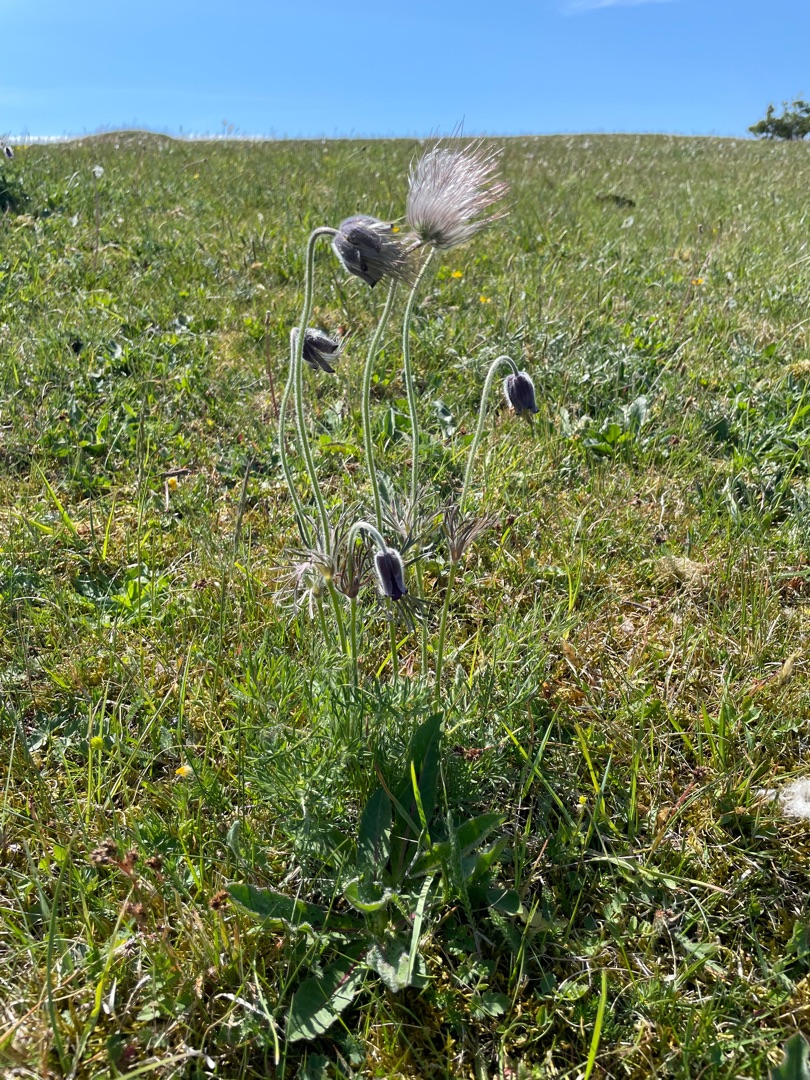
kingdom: Plantae
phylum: Tracheophyta
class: Magnoliopsida
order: Ranunculales
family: Ranunculaceae
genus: Pulsatilla
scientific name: Pulsatilla pratensis
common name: Nikkende kobjælde
